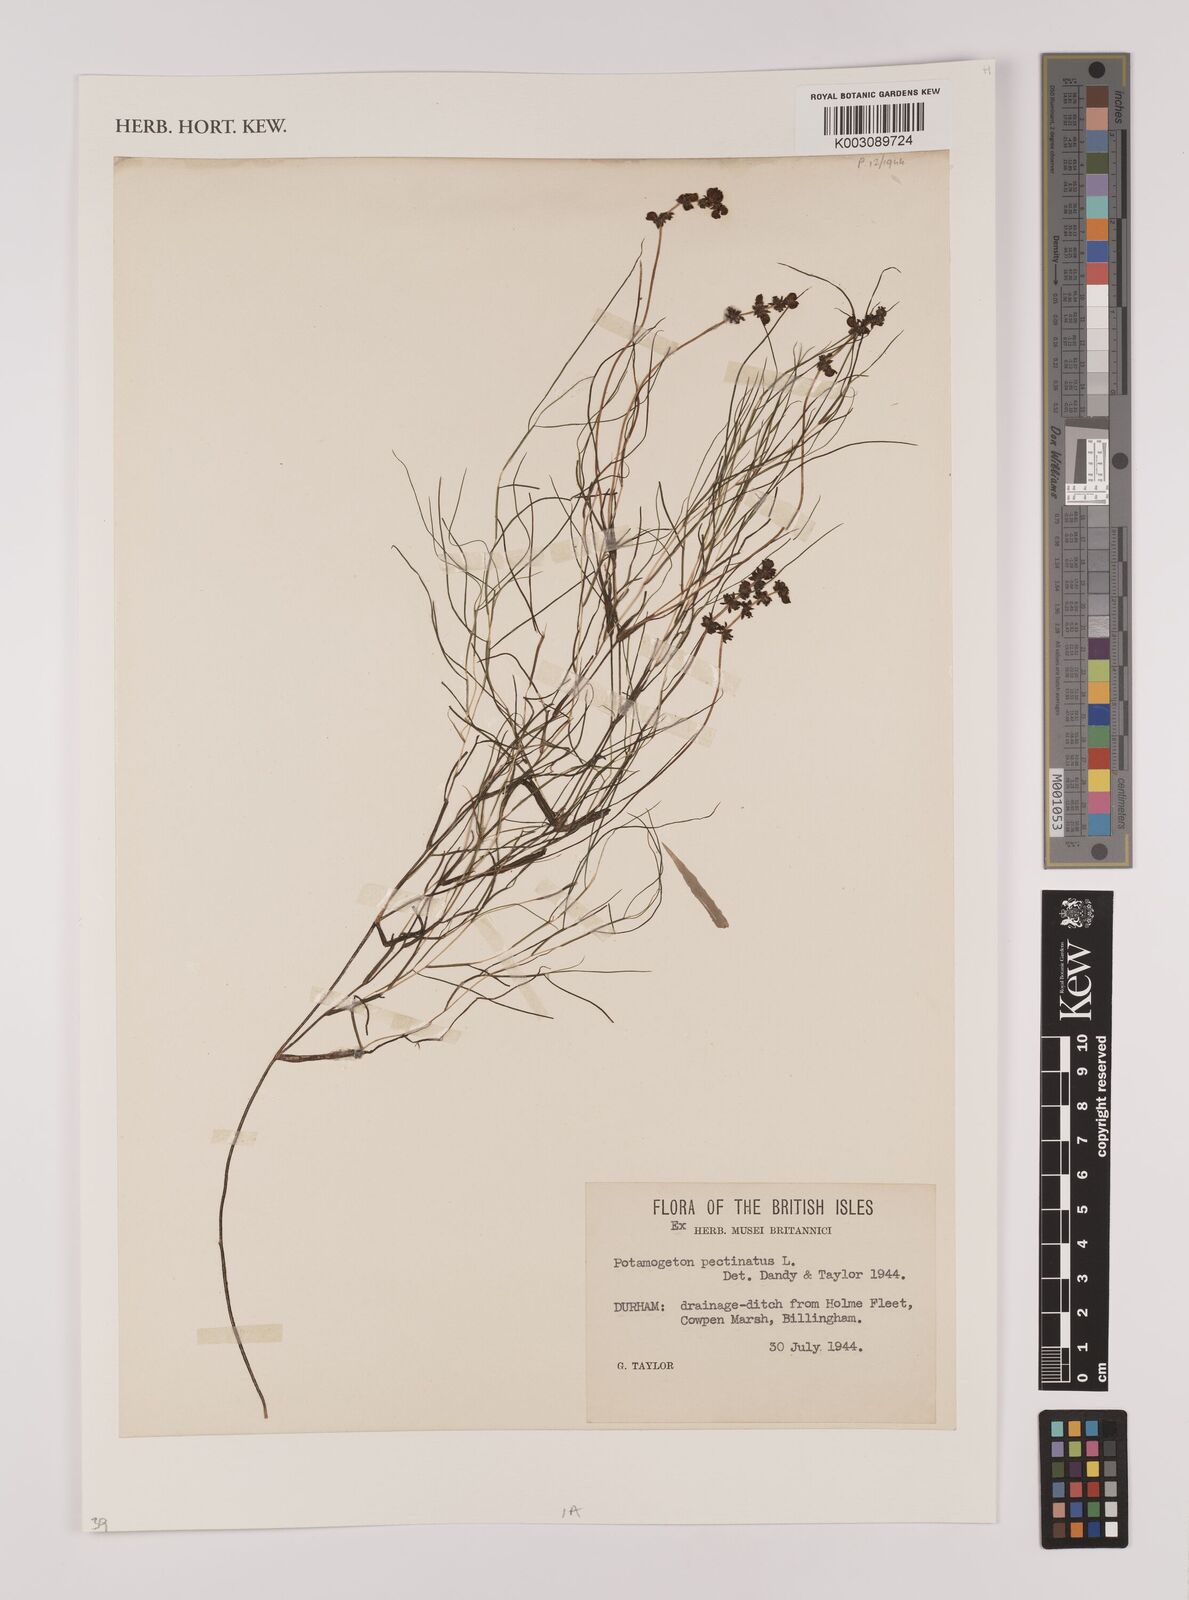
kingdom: Plantae
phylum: Tracheophyta
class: Liliopsida
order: Alismatales
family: Potamogetonaceae
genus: Stuckenia
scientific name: Stuckenia pectinata
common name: Sago pondweed
